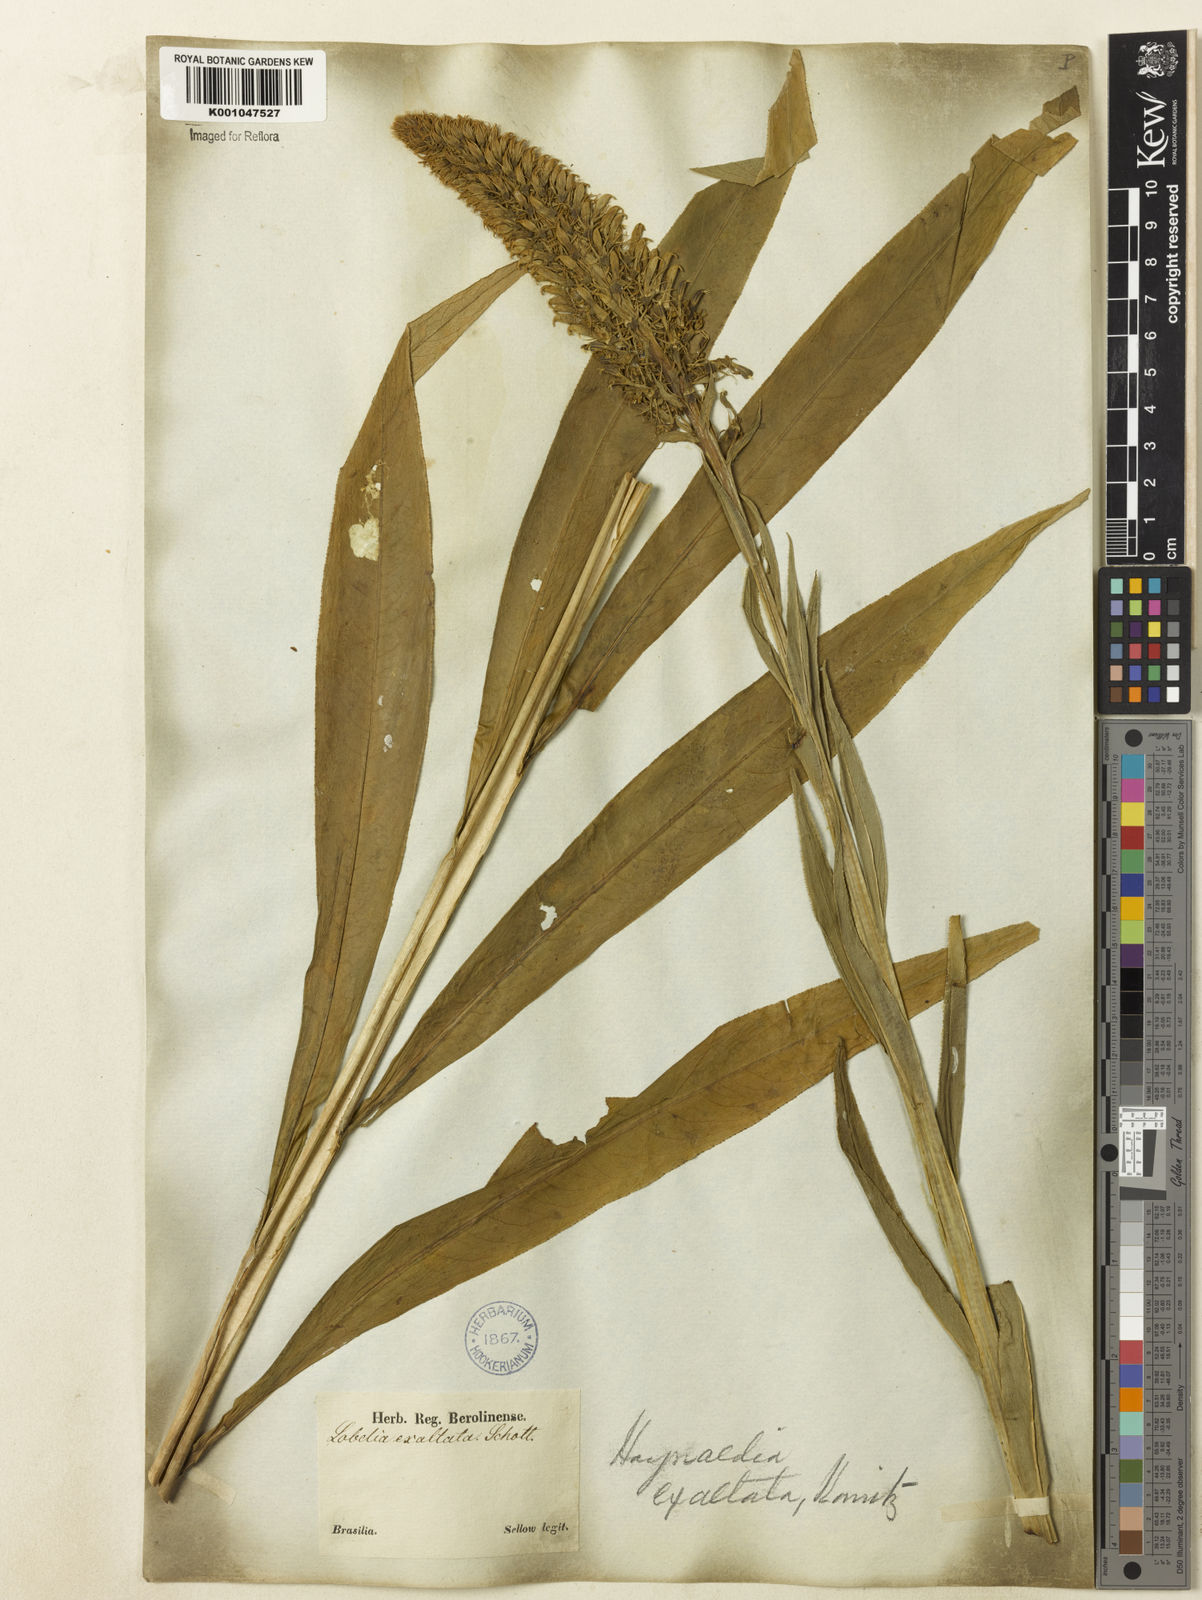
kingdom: Plantae
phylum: Tracheophyta
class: Magnoliopsida
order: Asterales
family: Campanulaceae
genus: Lobelia
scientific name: Lobelia exaltata
